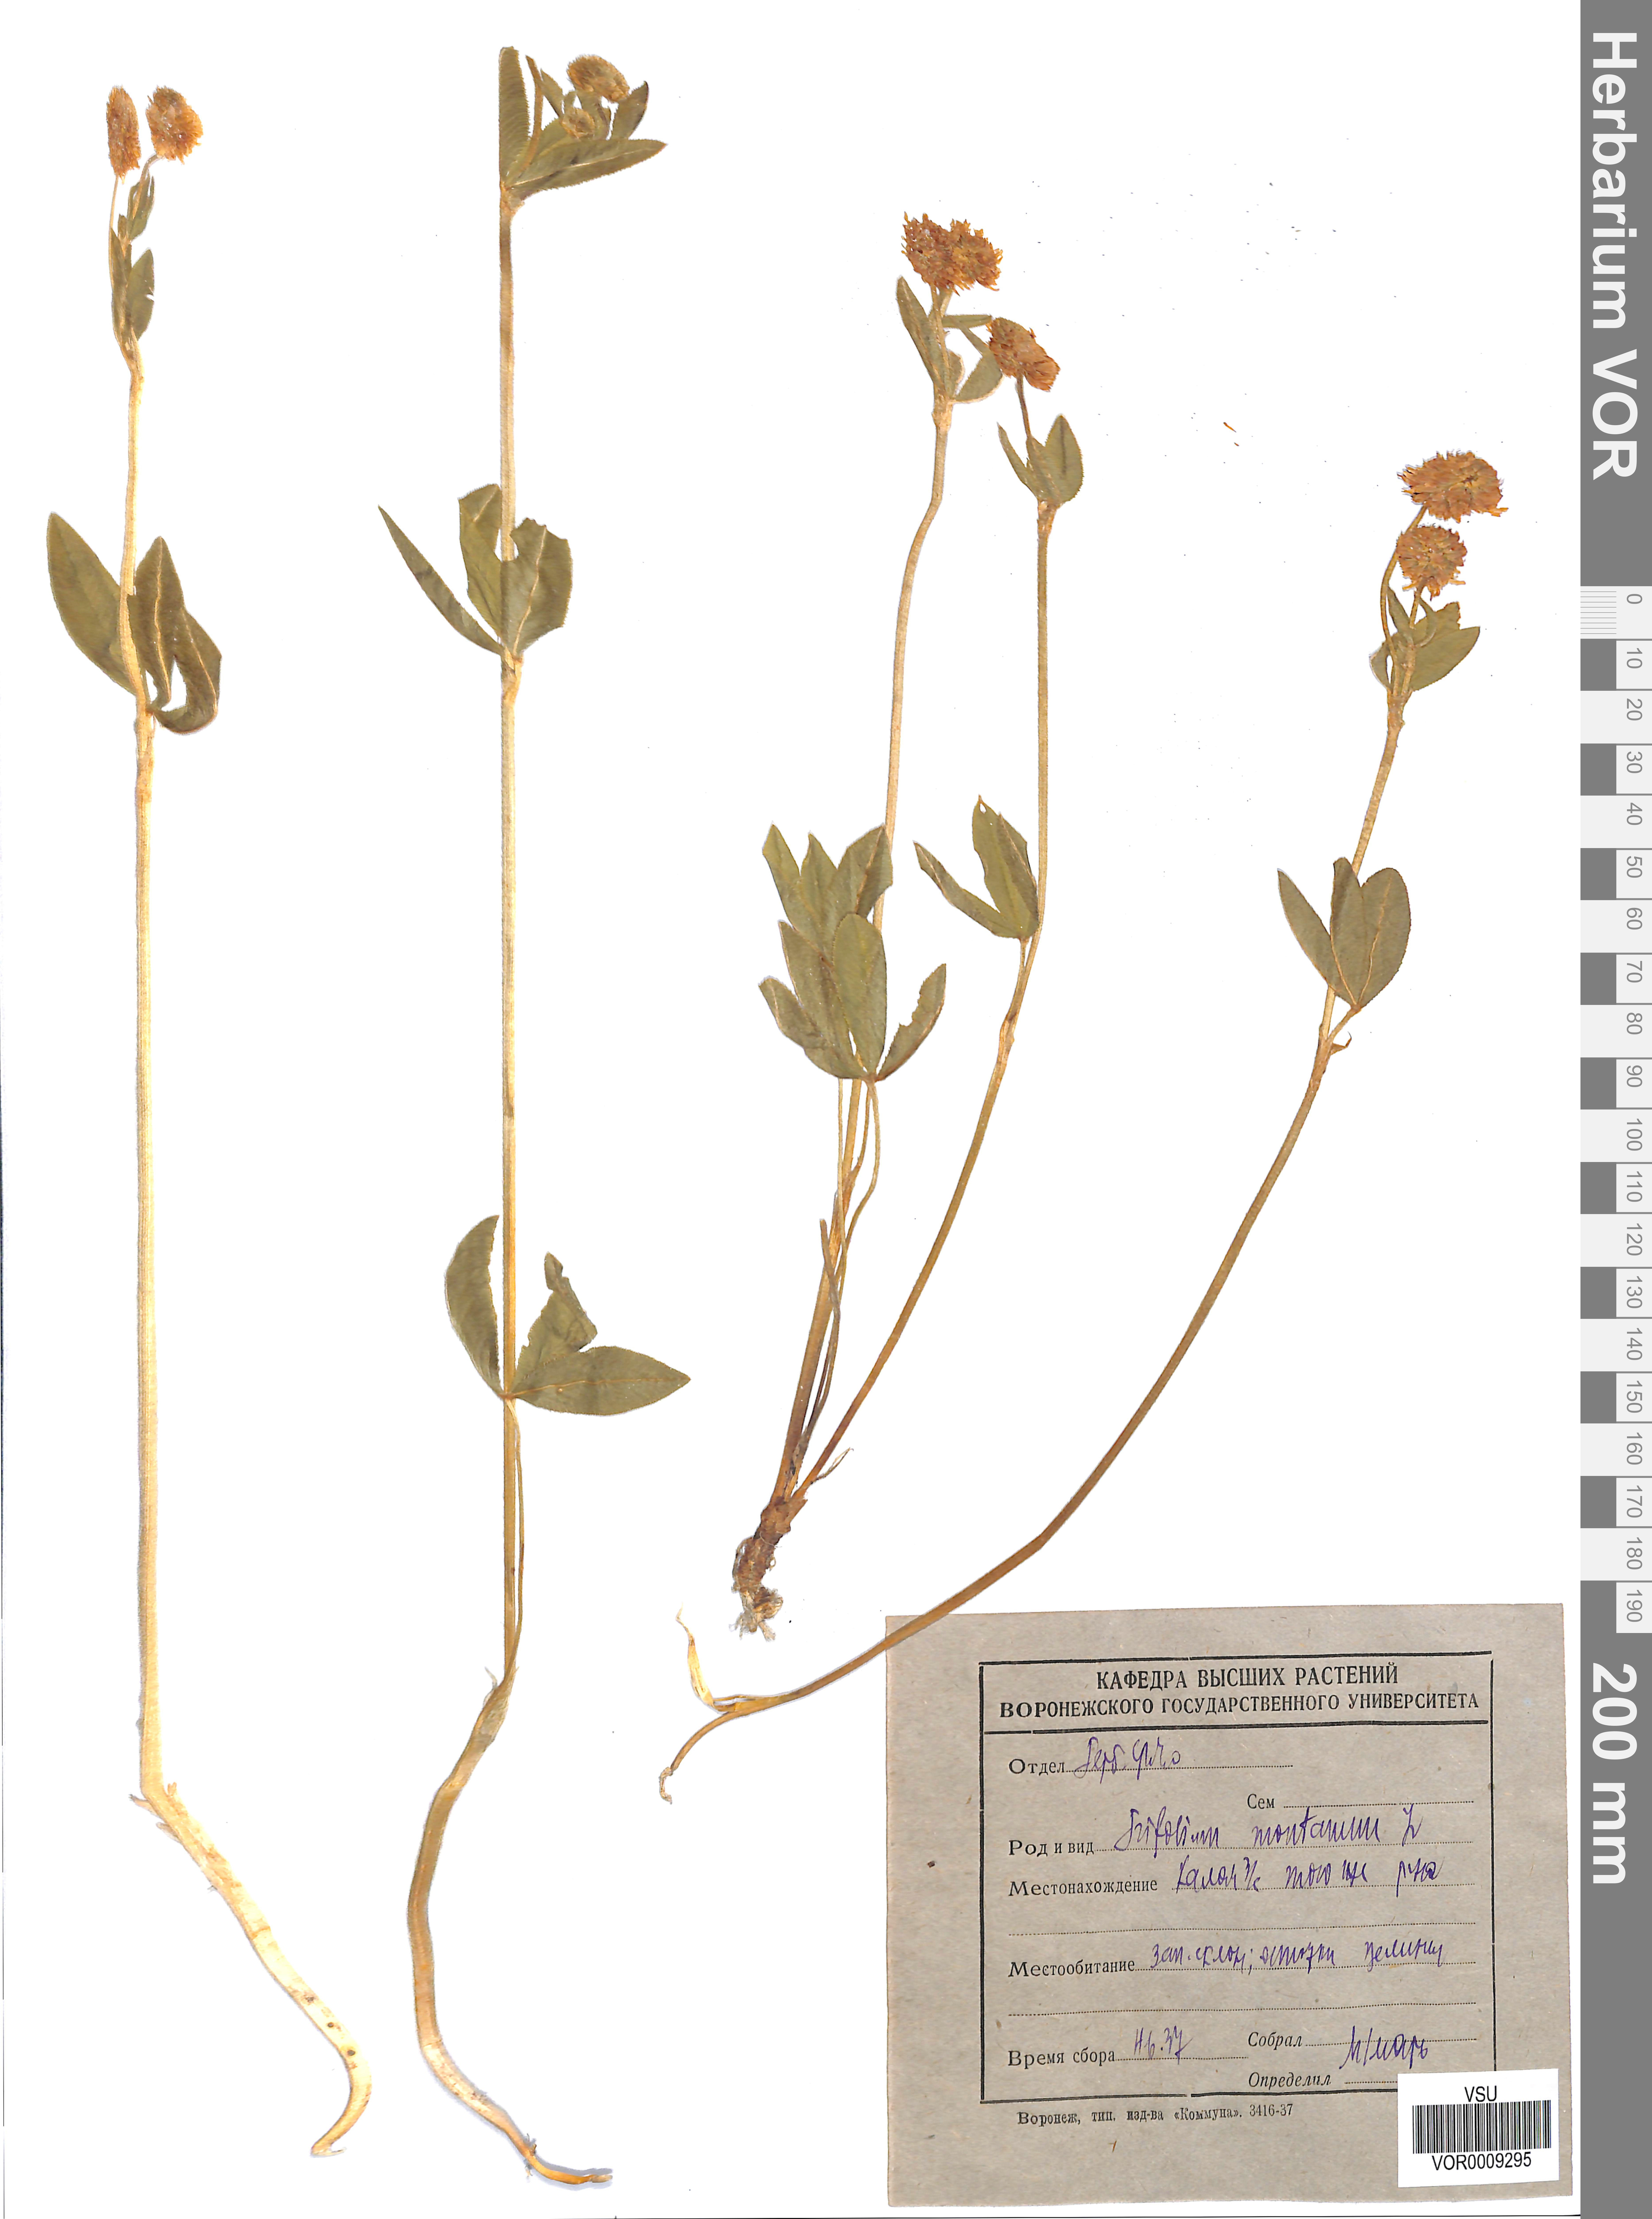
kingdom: Plantae
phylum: Tracheophyta
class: Magnoliopsida
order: Fabales
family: Fabaceae
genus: Trifolium
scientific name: Trifolium montanum
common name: Mountain clover
